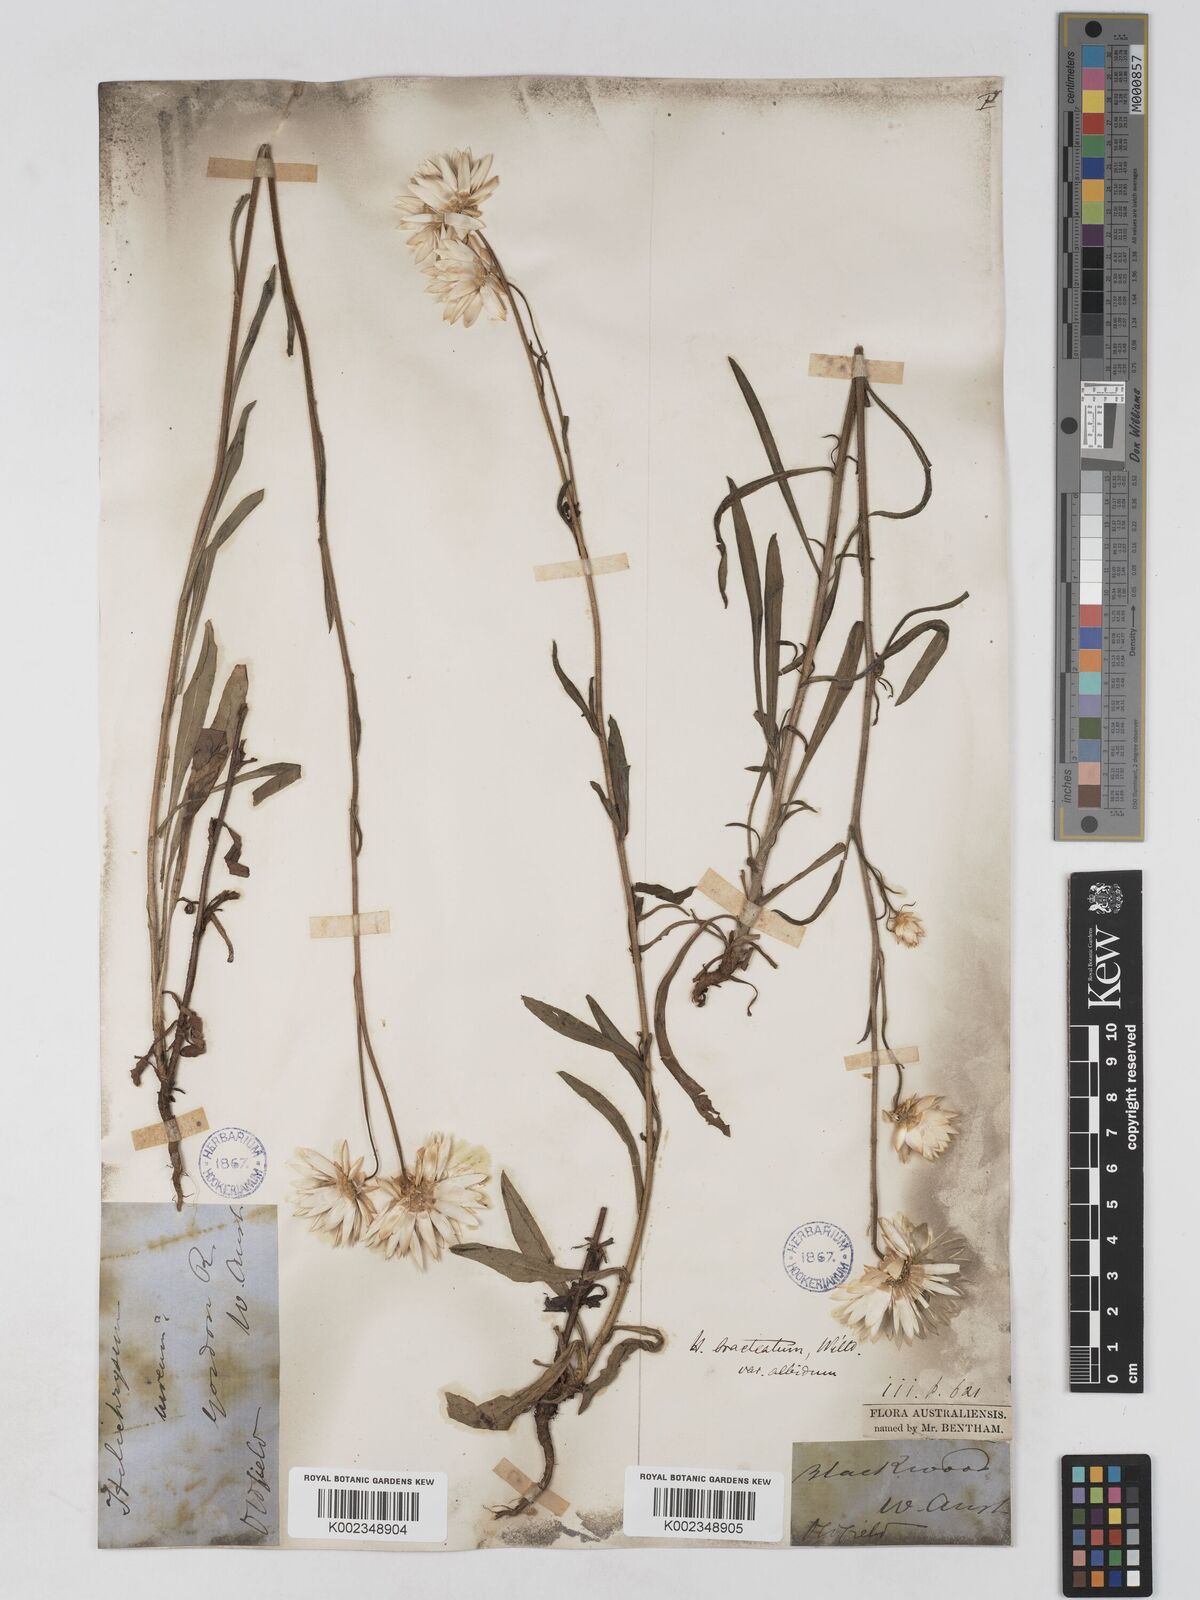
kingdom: Plantae
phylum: Tracheophyta
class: Magnoliopsida
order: Asterales
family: Asteraceae
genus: Xerochrysum
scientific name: Xerochrysum bracteatum
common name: Bracted strawflower
